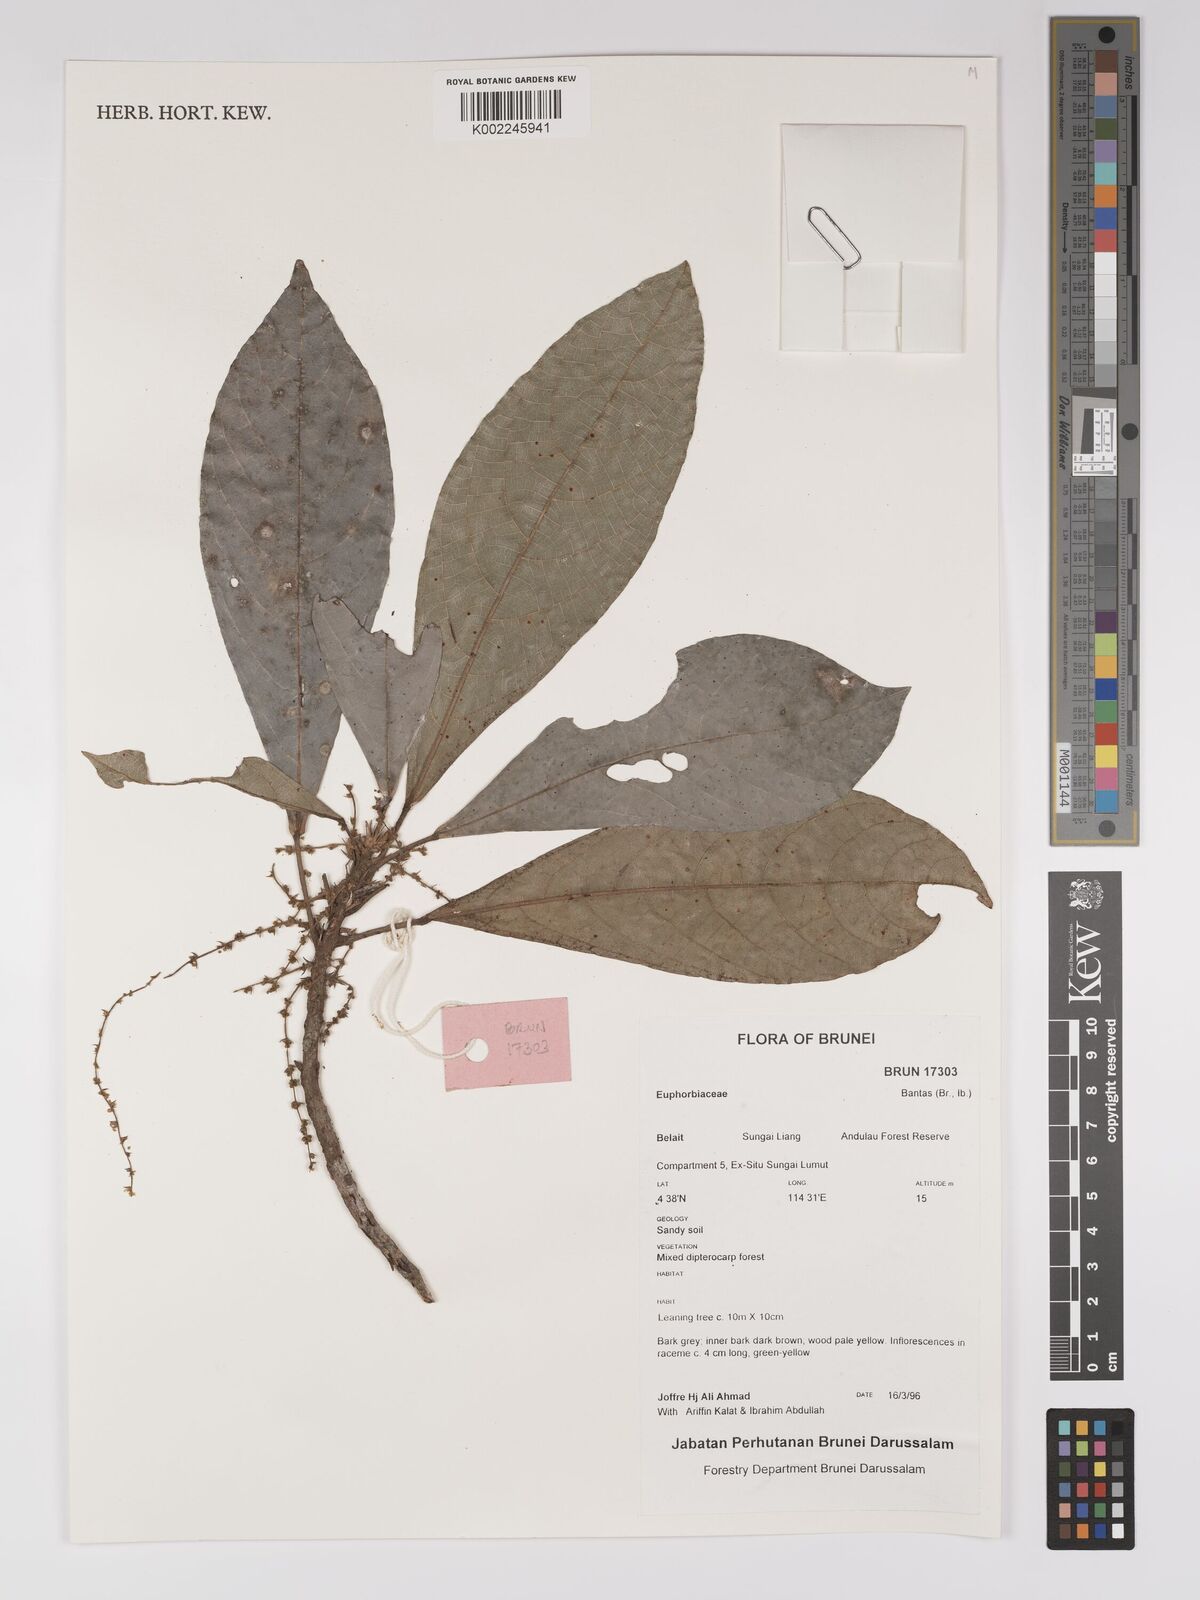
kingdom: Plantae
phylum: Tracheophyta
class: Magnoliopsida
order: Malpighiales
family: Euphorbiaceae
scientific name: Euphorbiaceae
